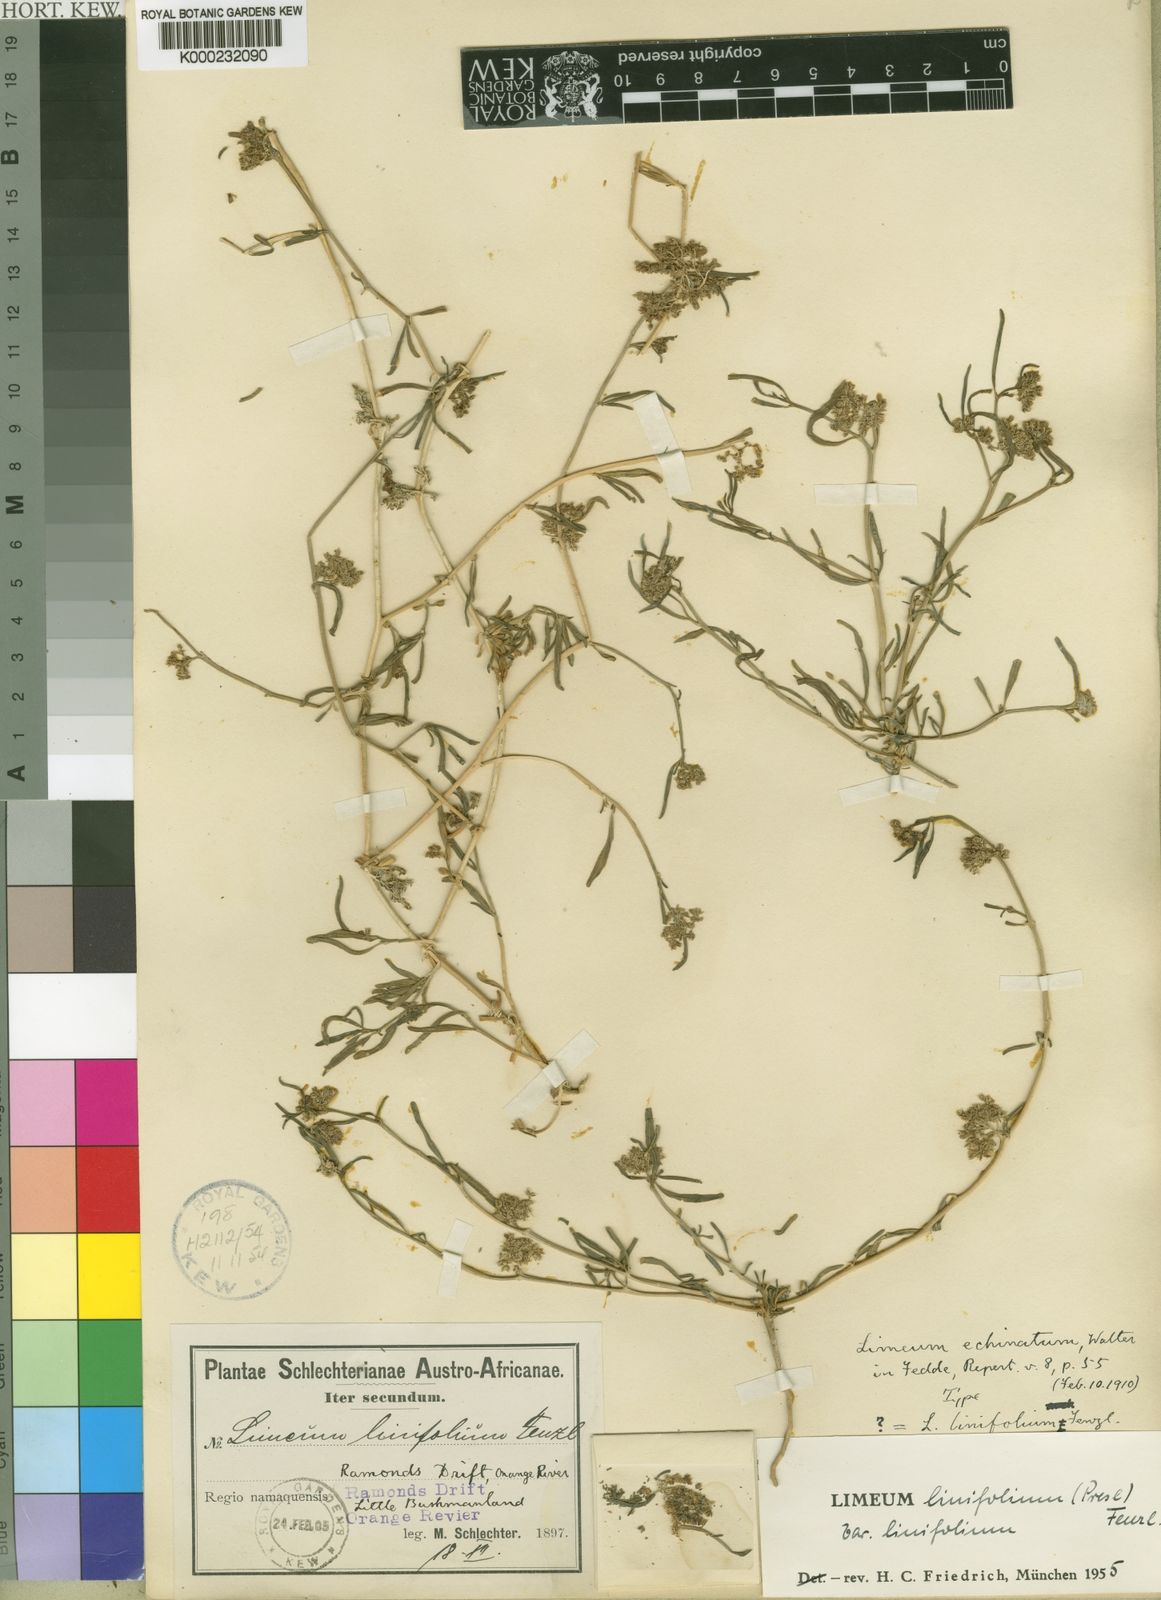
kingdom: Plantae
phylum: Tracheophyta
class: Magnoliopsida
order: Caryophyllales
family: Limeaceae
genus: Limeum
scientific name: Limeum diffusum
